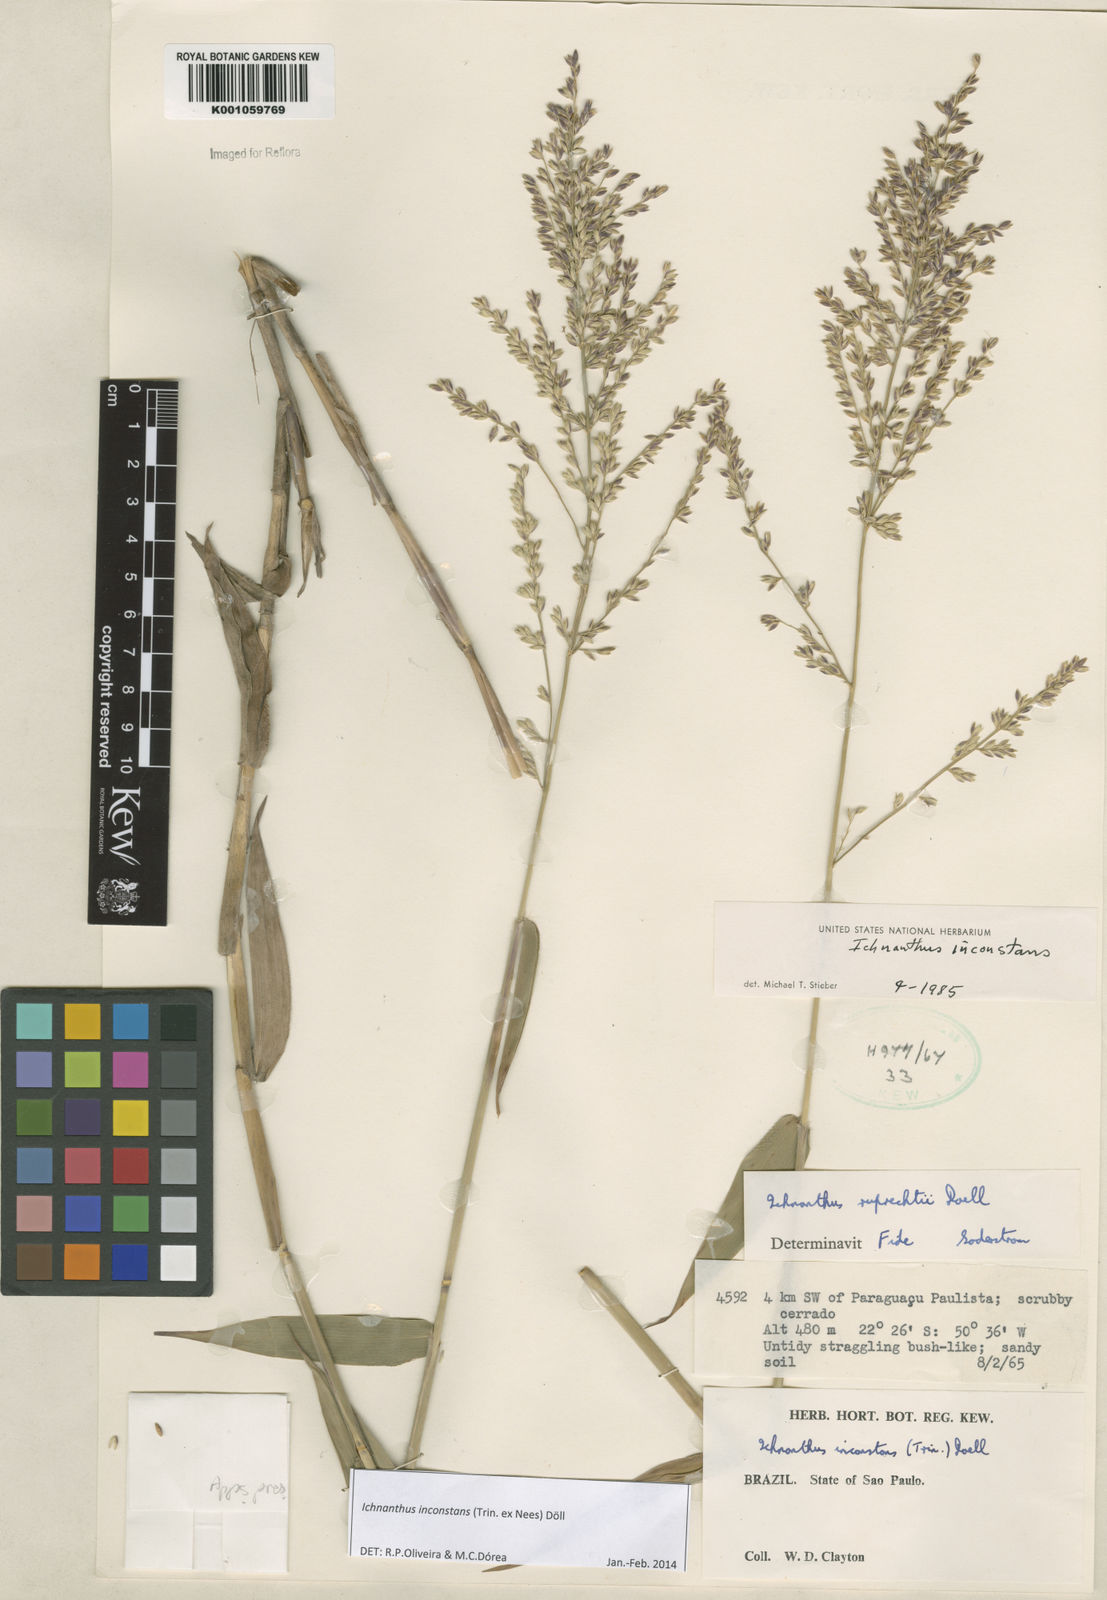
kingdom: Plantae
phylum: Tracheophyta
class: Liliopsida
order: Poales
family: Poaceae
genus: Ichnanthus
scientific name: Ichnanthus
